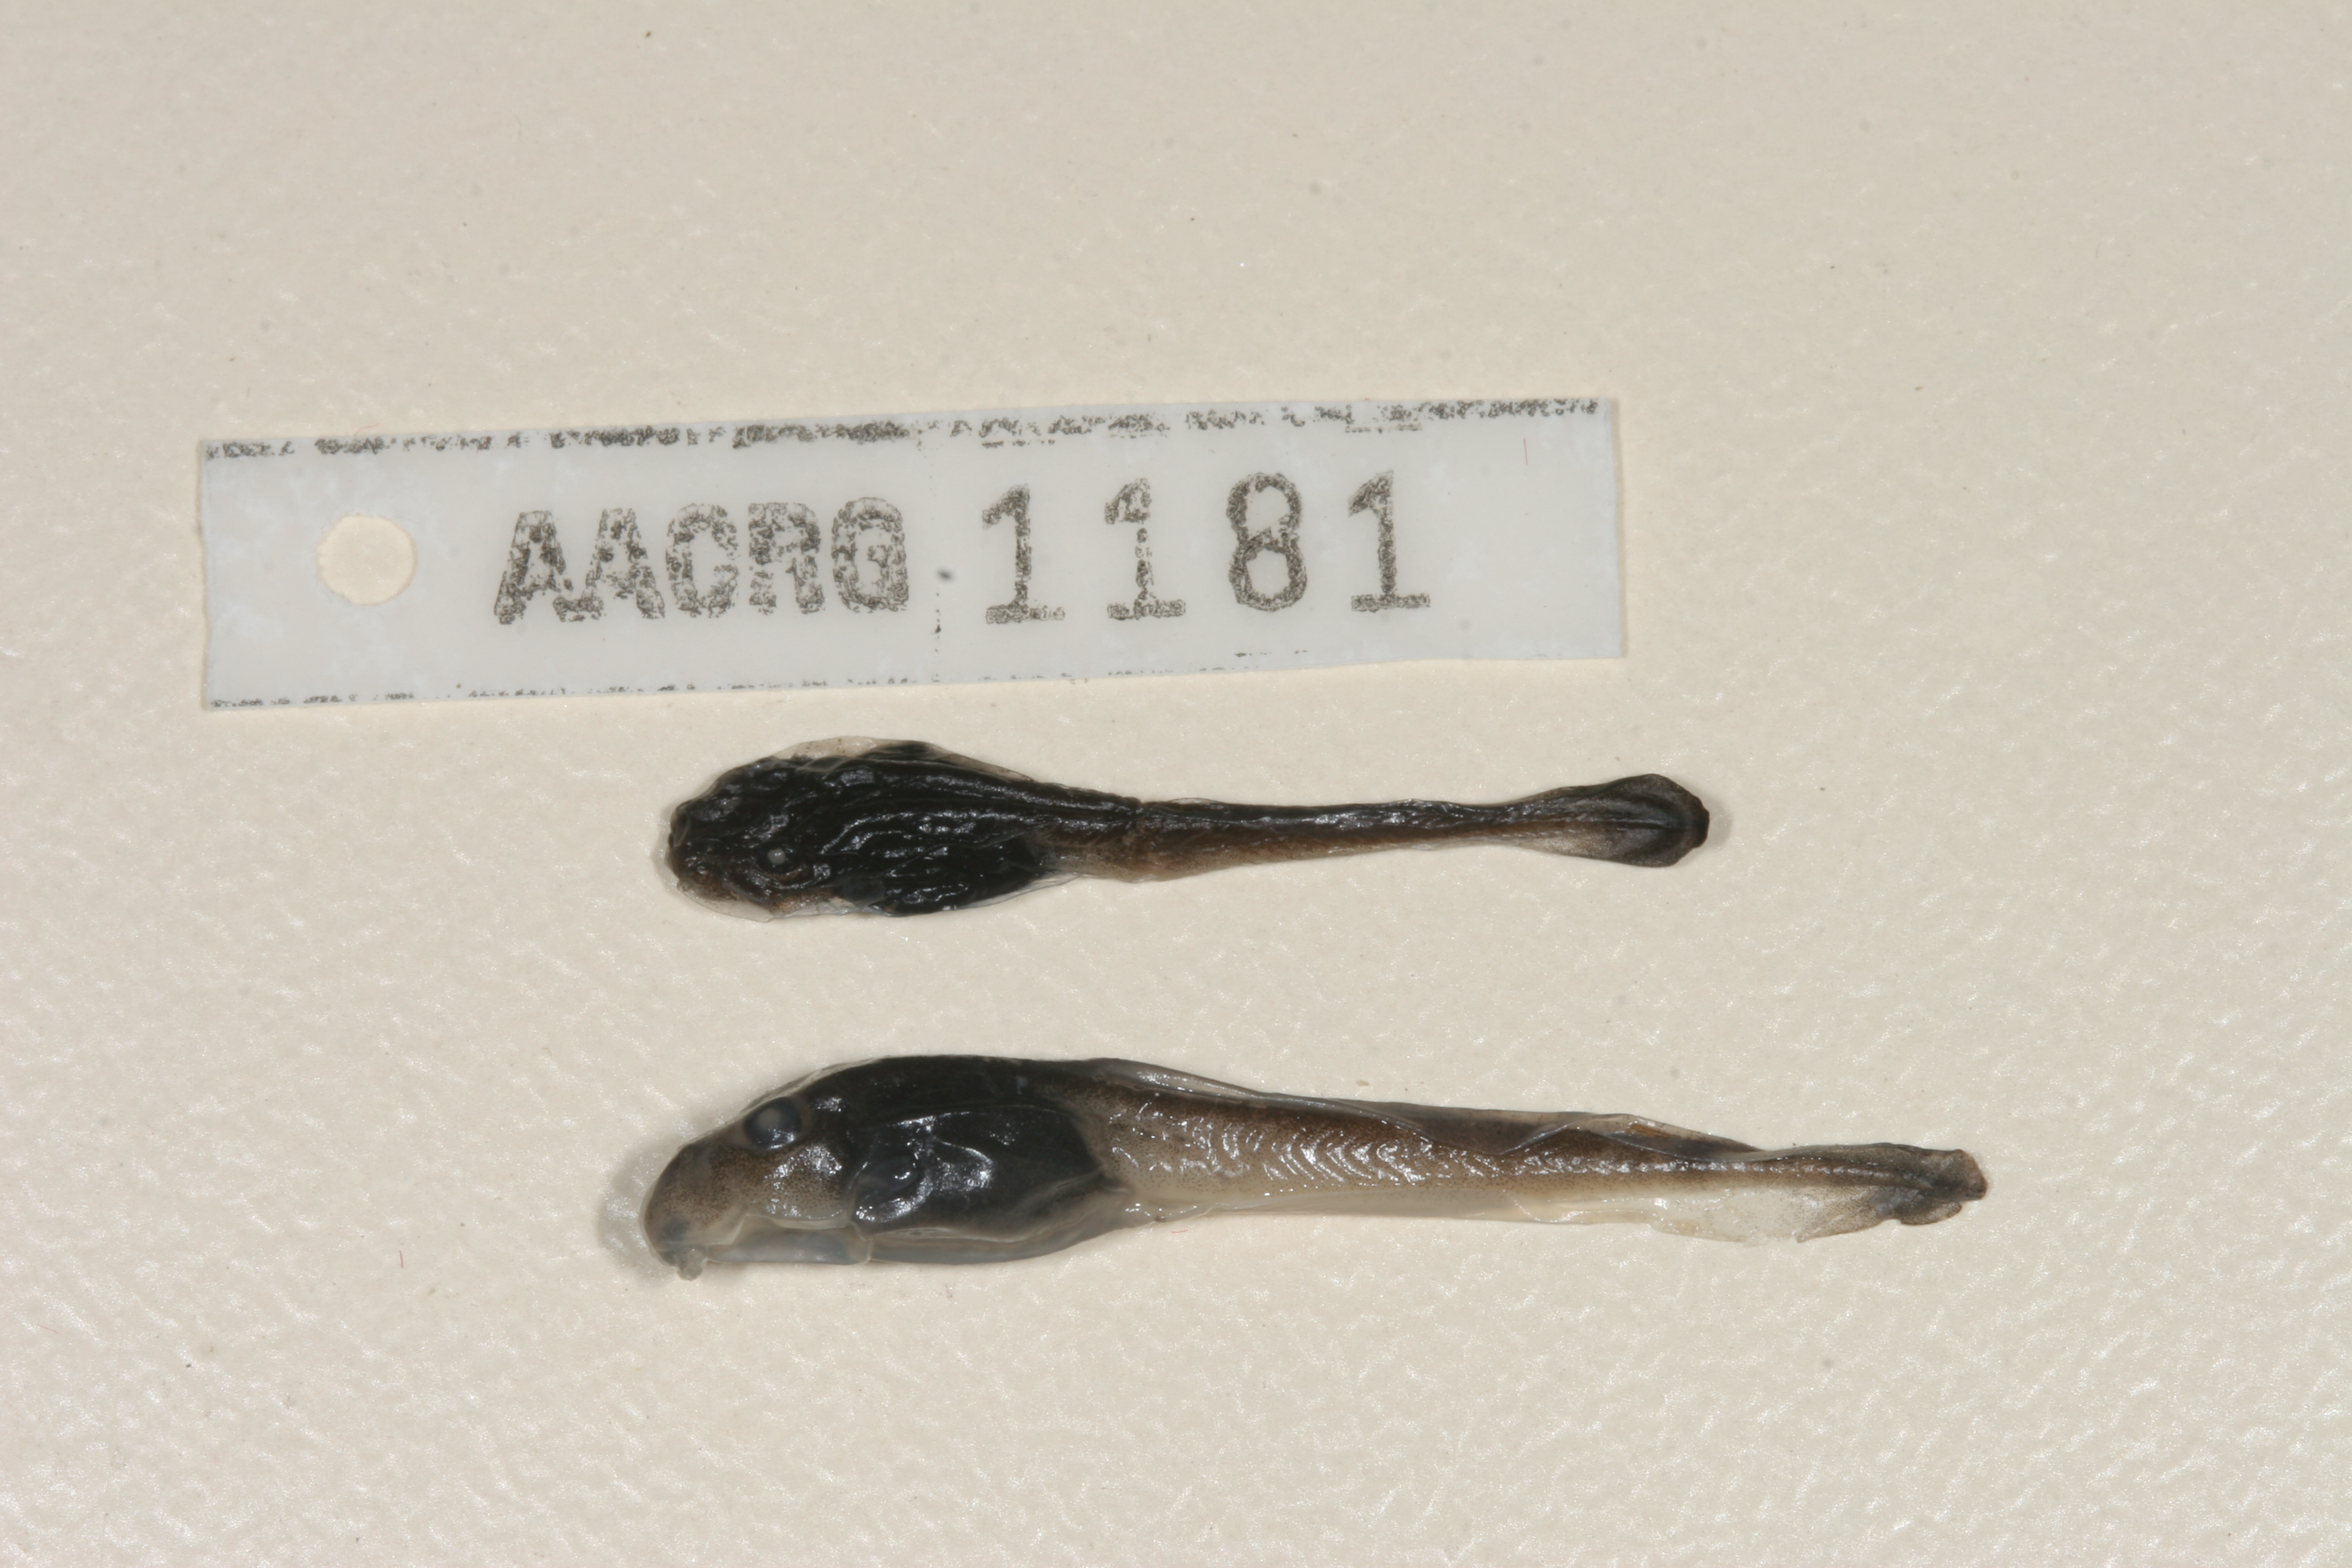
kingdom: Animalia
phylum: Chordata
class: Amphibia
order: Anura
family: Pyxicephalidae
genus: Strongylopus
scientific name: Strongylopus wageri
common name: Wager's stream frog
